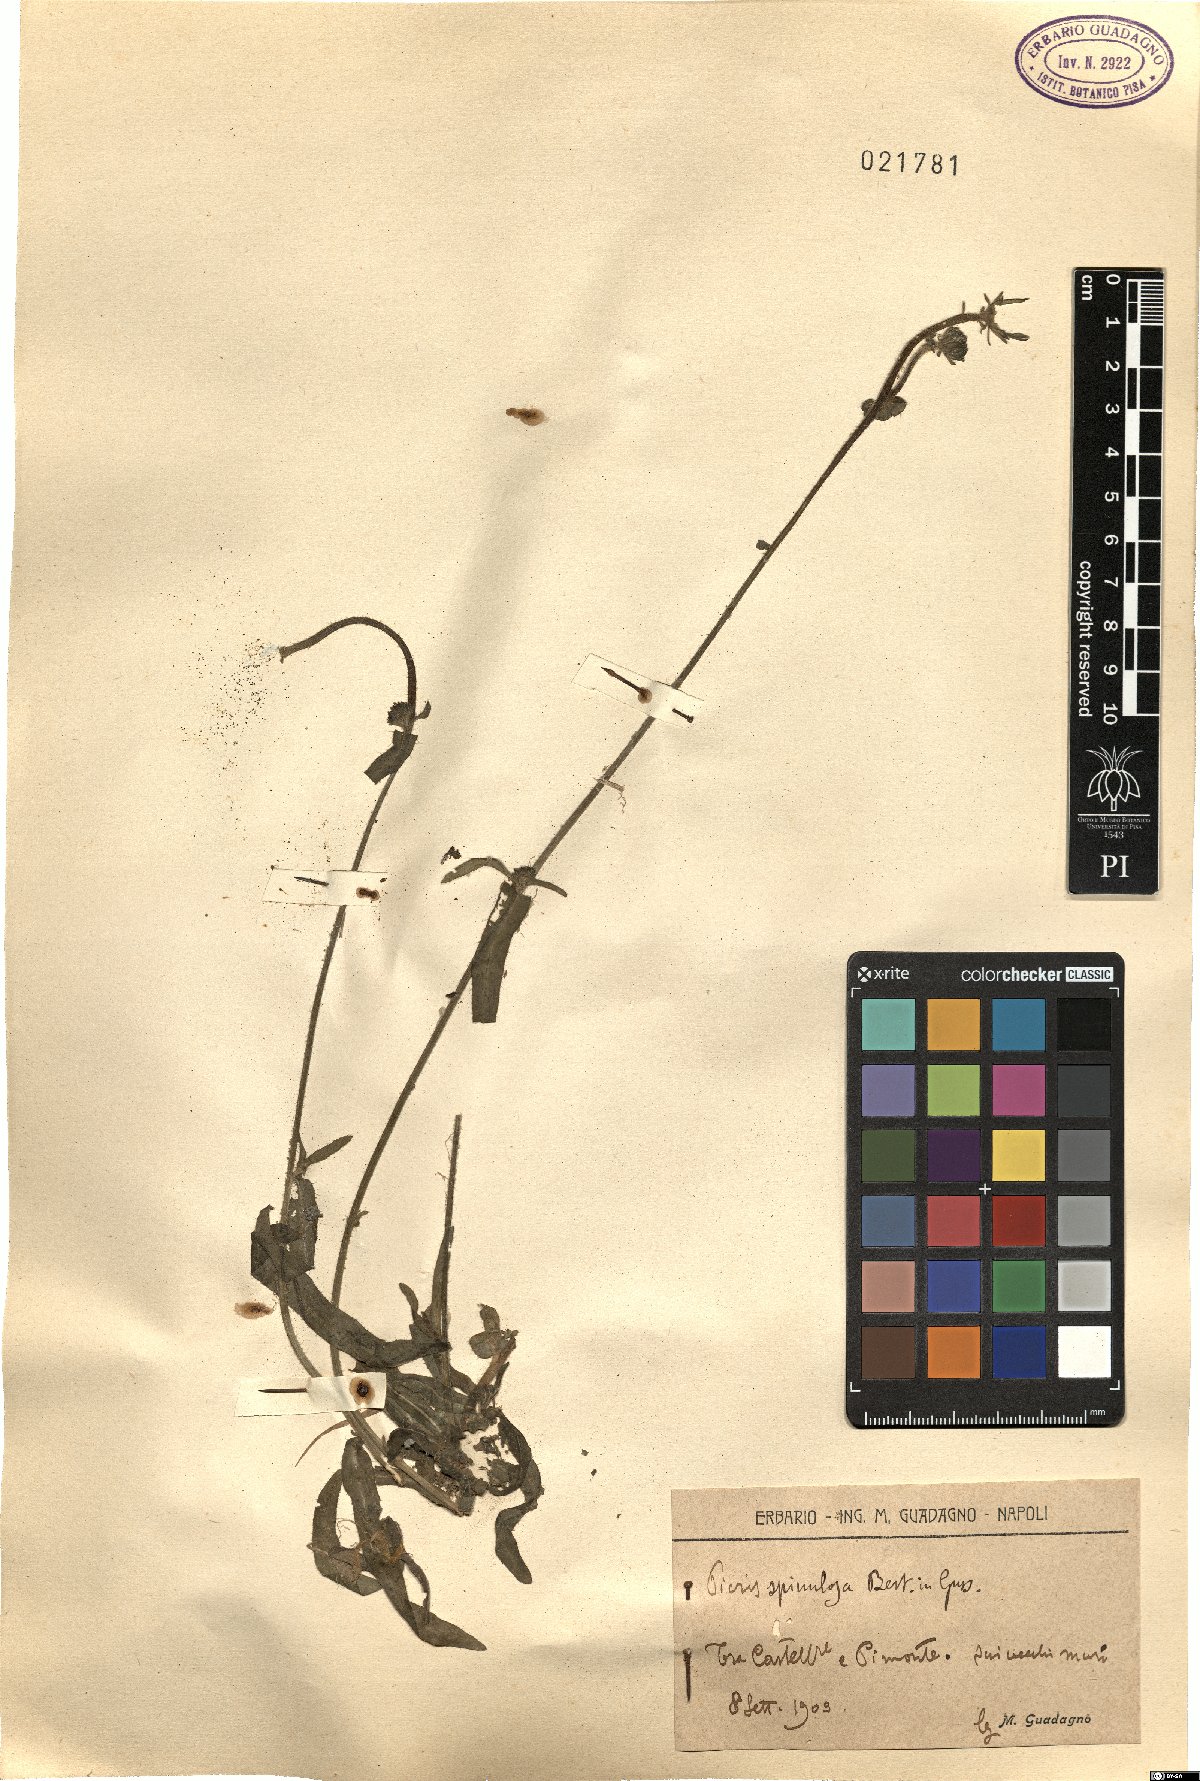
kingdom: Plantae
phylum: Tracheophyta
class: Magnoliopsida
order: Asterales
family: Asteraceae
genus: Picris
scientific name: Picris hieracioides
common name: Hawkweed oxtongue
